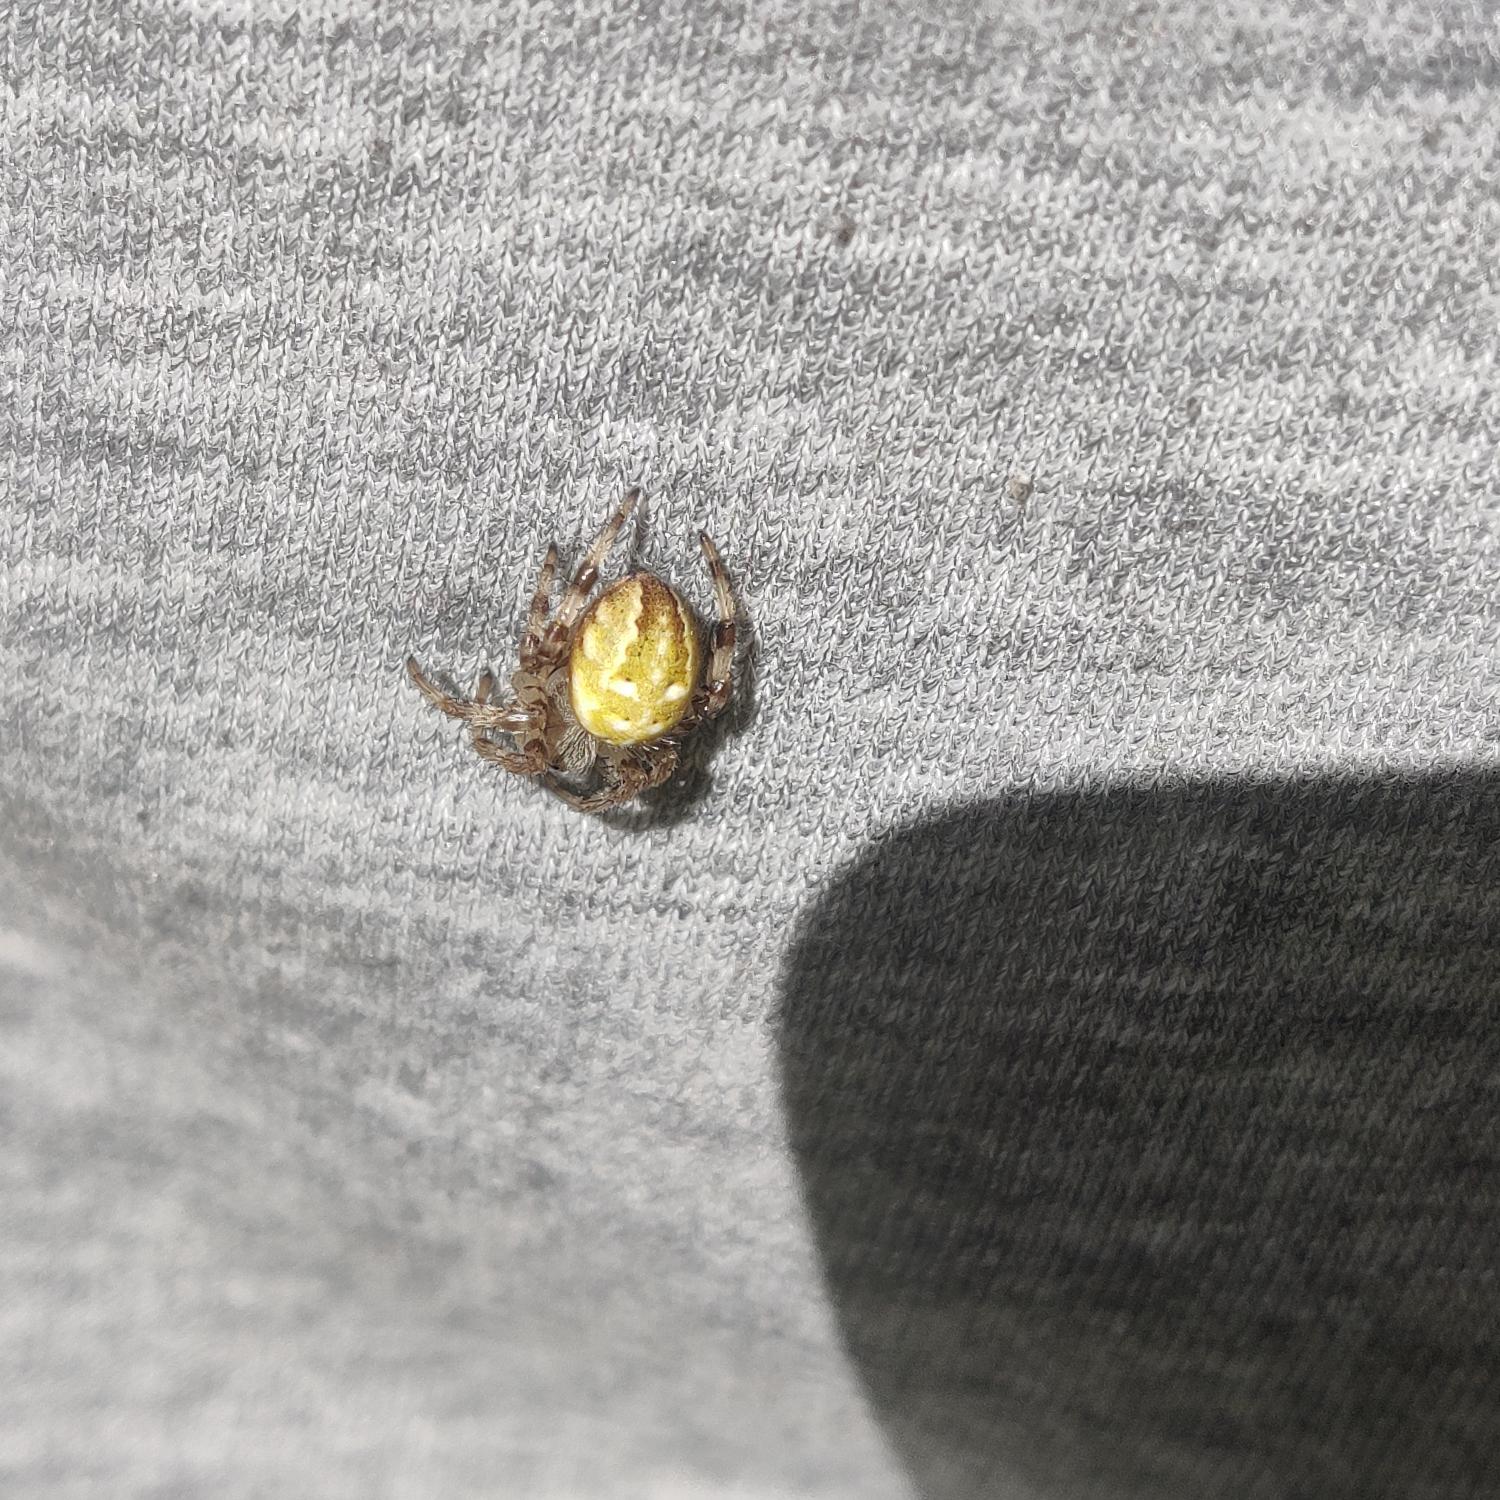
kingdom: Animalia
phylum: Arthropoda
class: Arachnida
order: Araneae
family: Araneidae
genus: Araneus
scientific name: Araneus quadratus
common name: Kvadratedderkop
